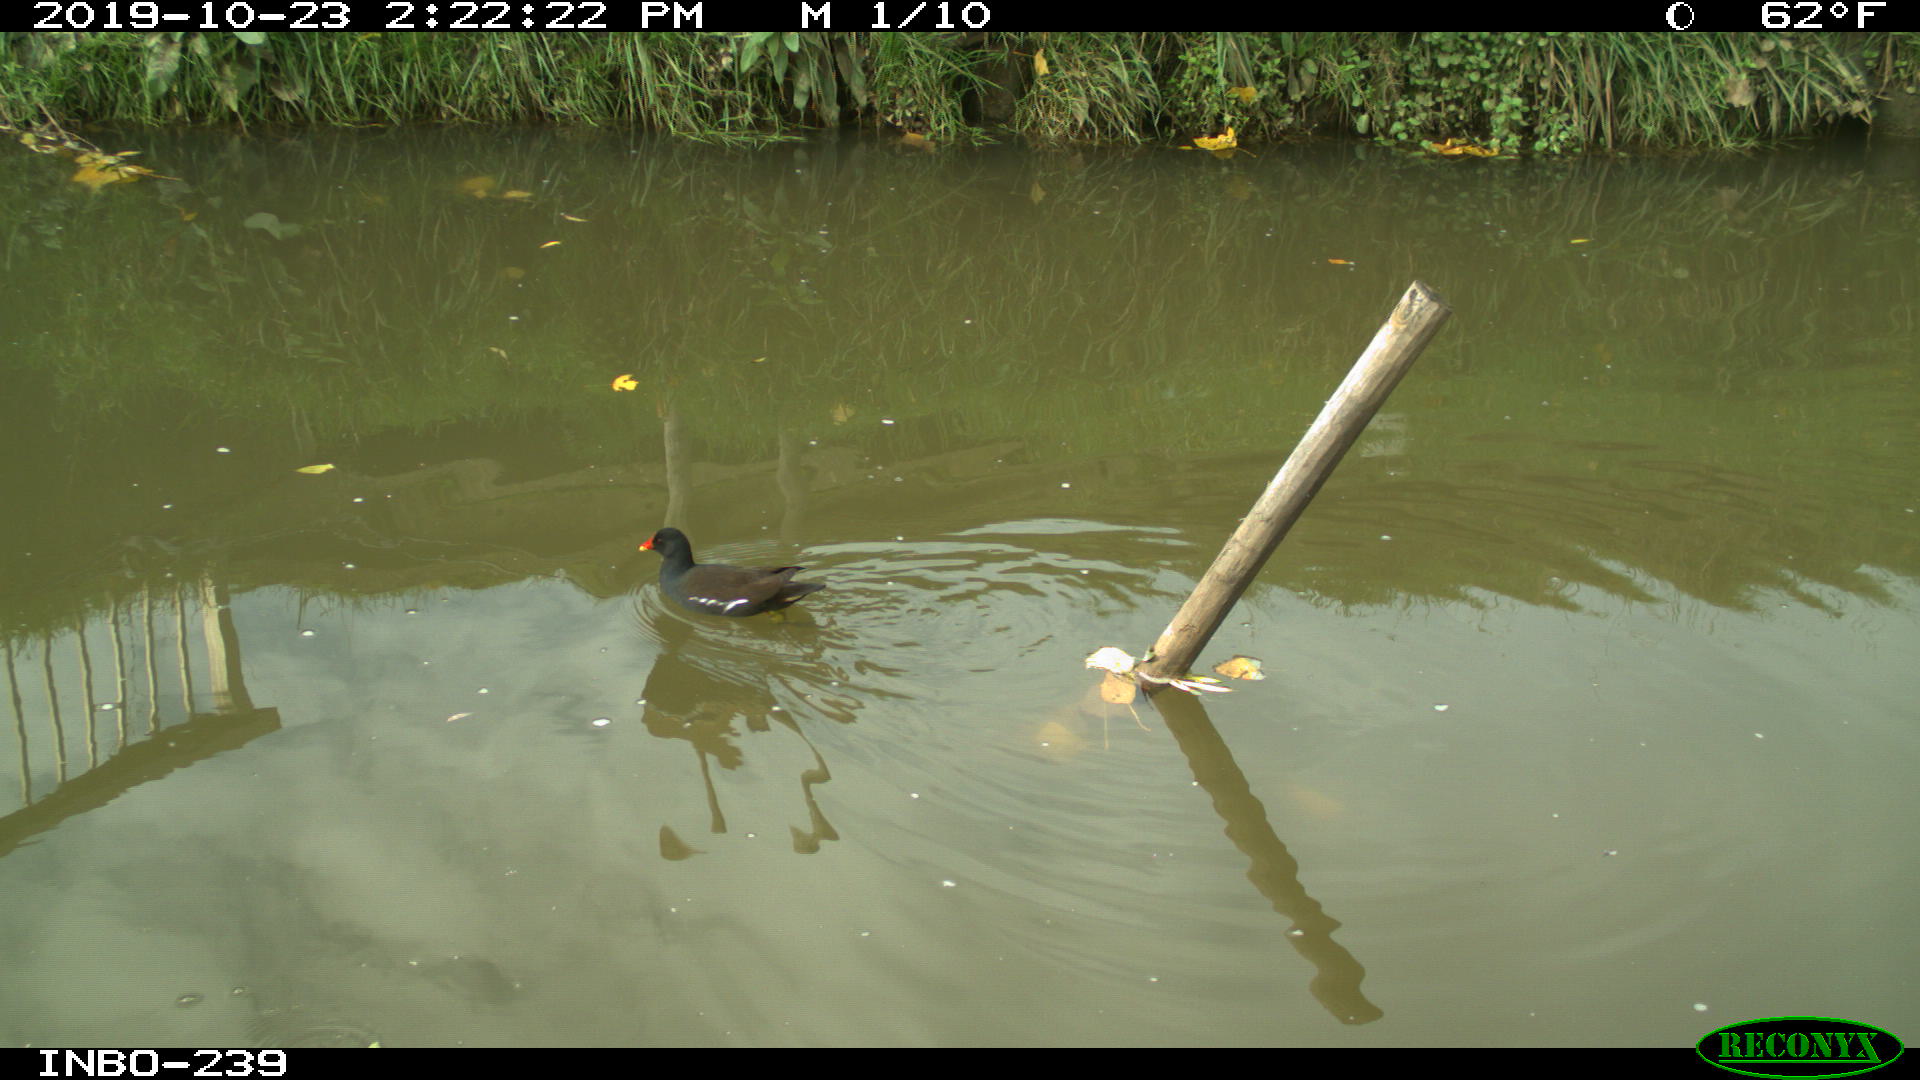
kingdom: Animalia
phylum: Chordata
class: Aves
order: Gruiformes
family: Rallidae
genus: Gallinula
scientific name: Gallinula chloropus
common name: Common moorhen
